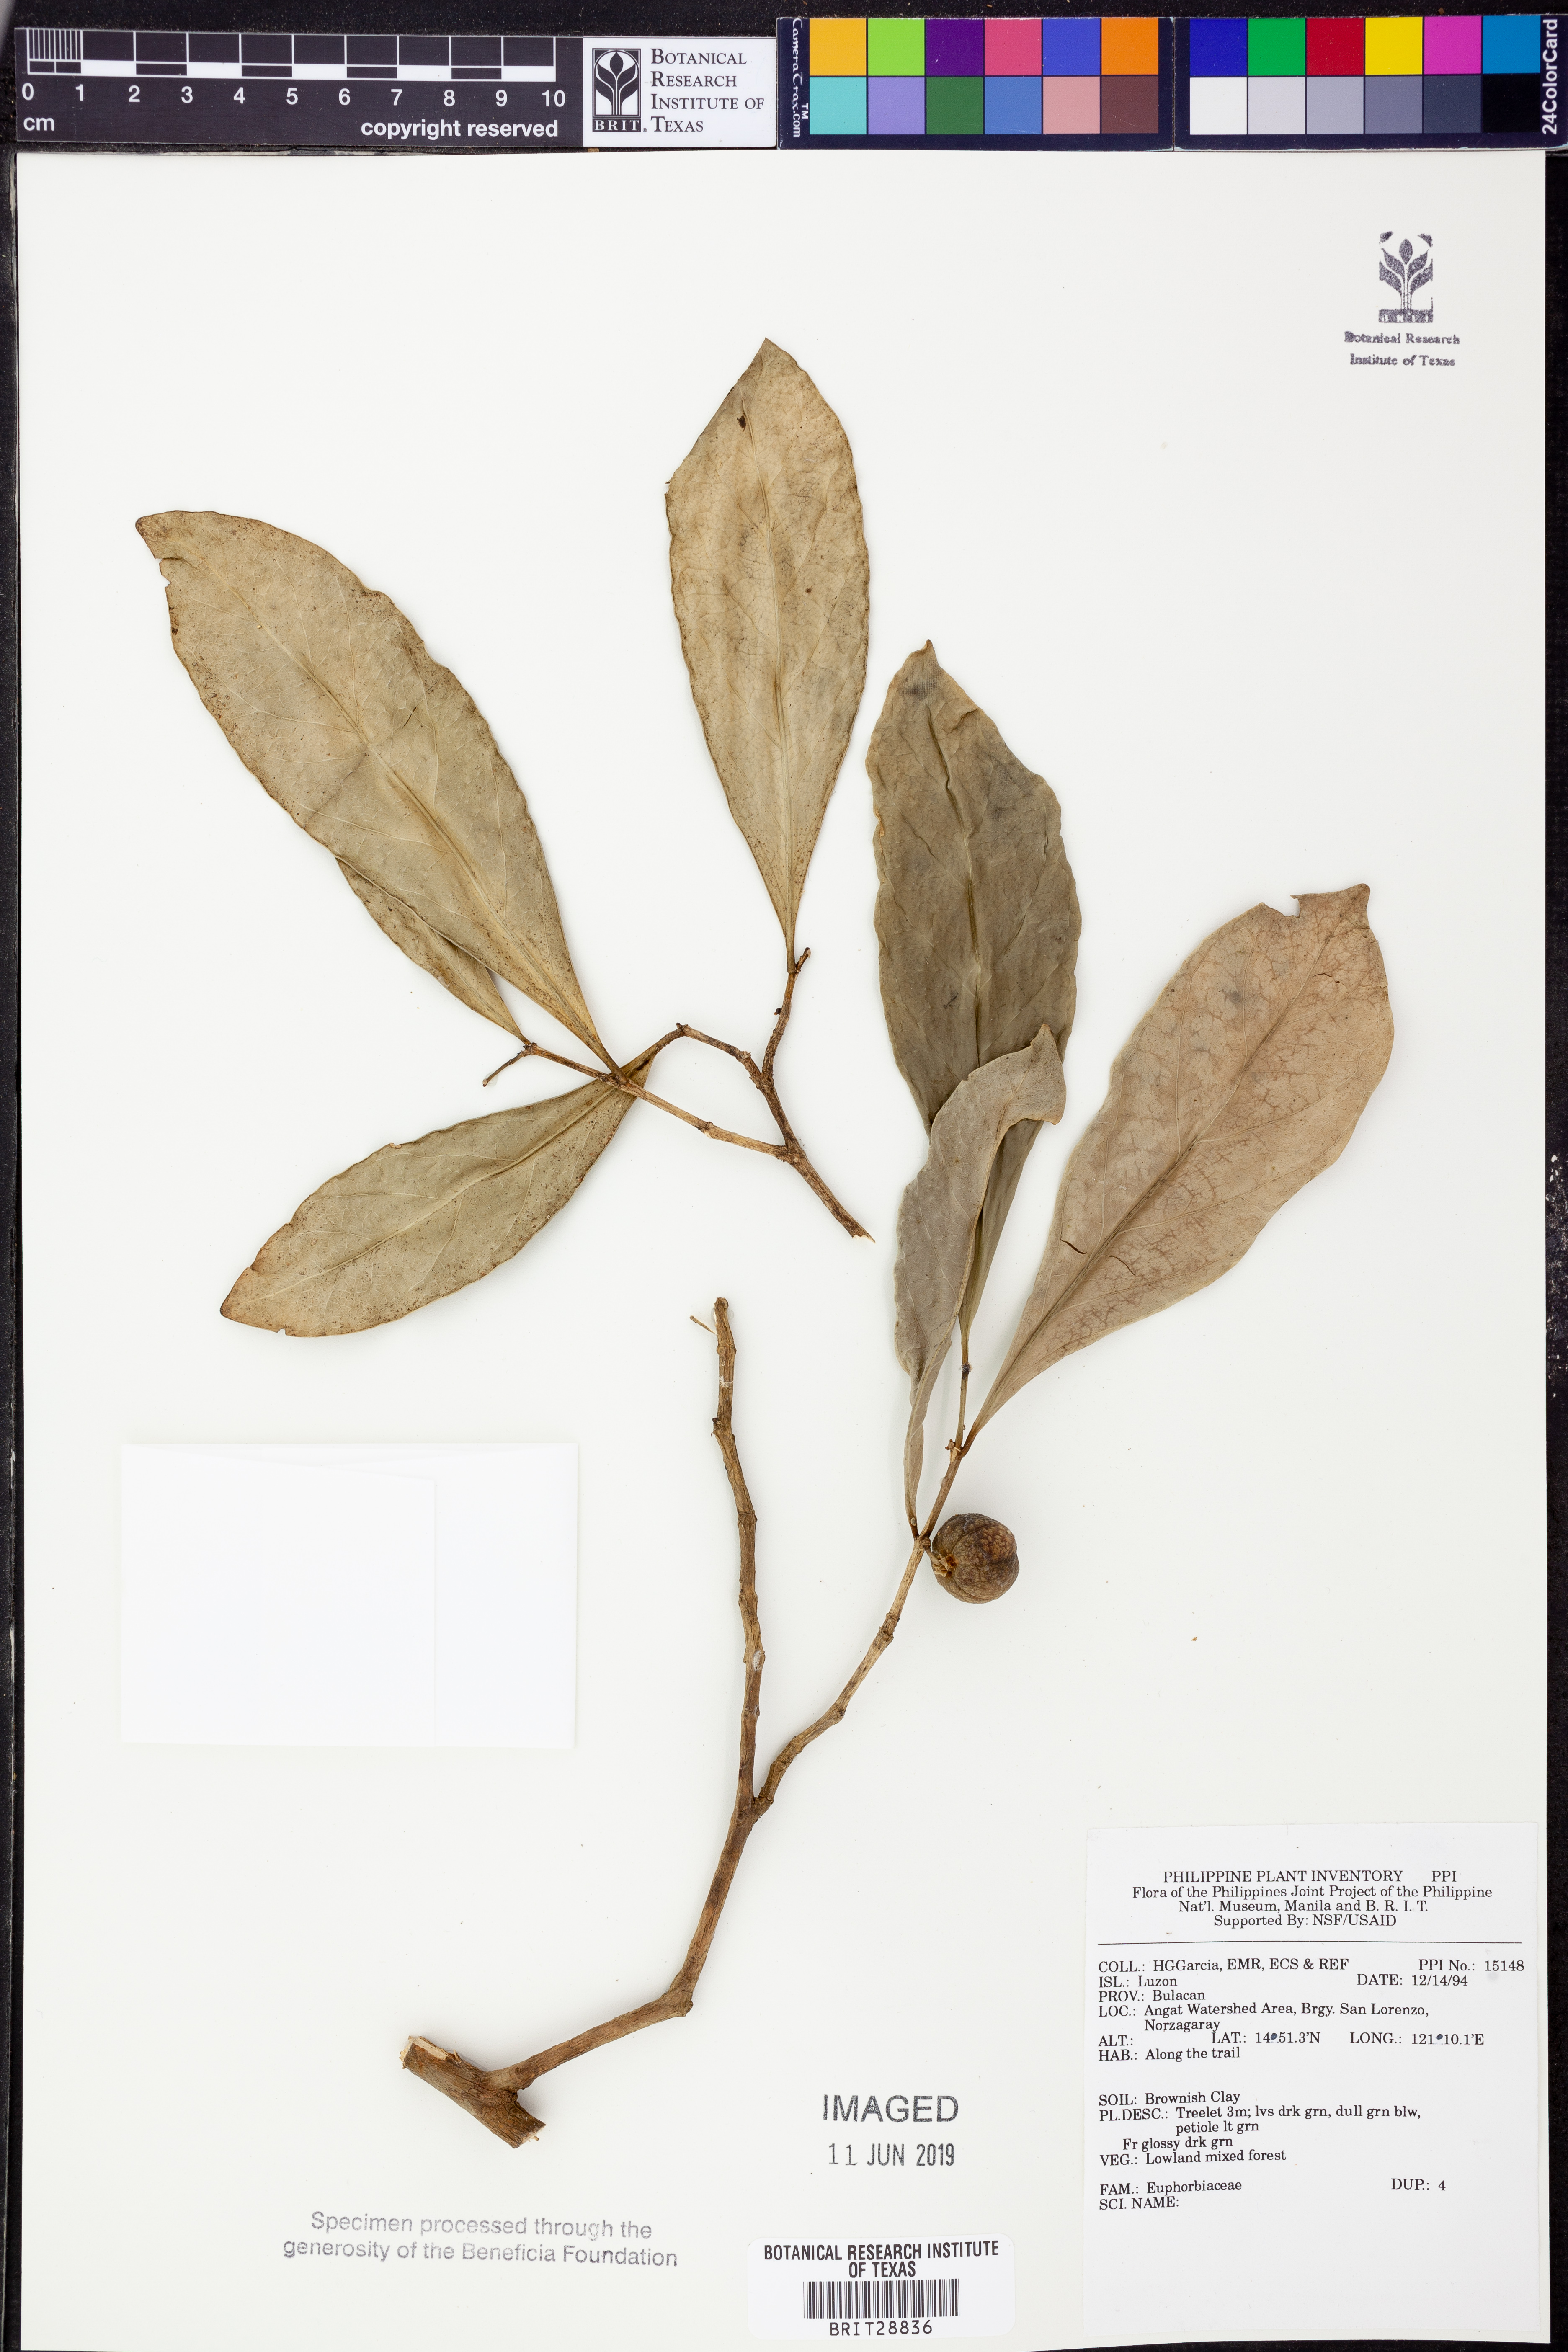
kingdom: Plantae
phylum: Tracheophyta
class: Magnoliopsida
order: Malpighiales
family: Euphorbiaceae
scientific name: Euphorbiaceae
